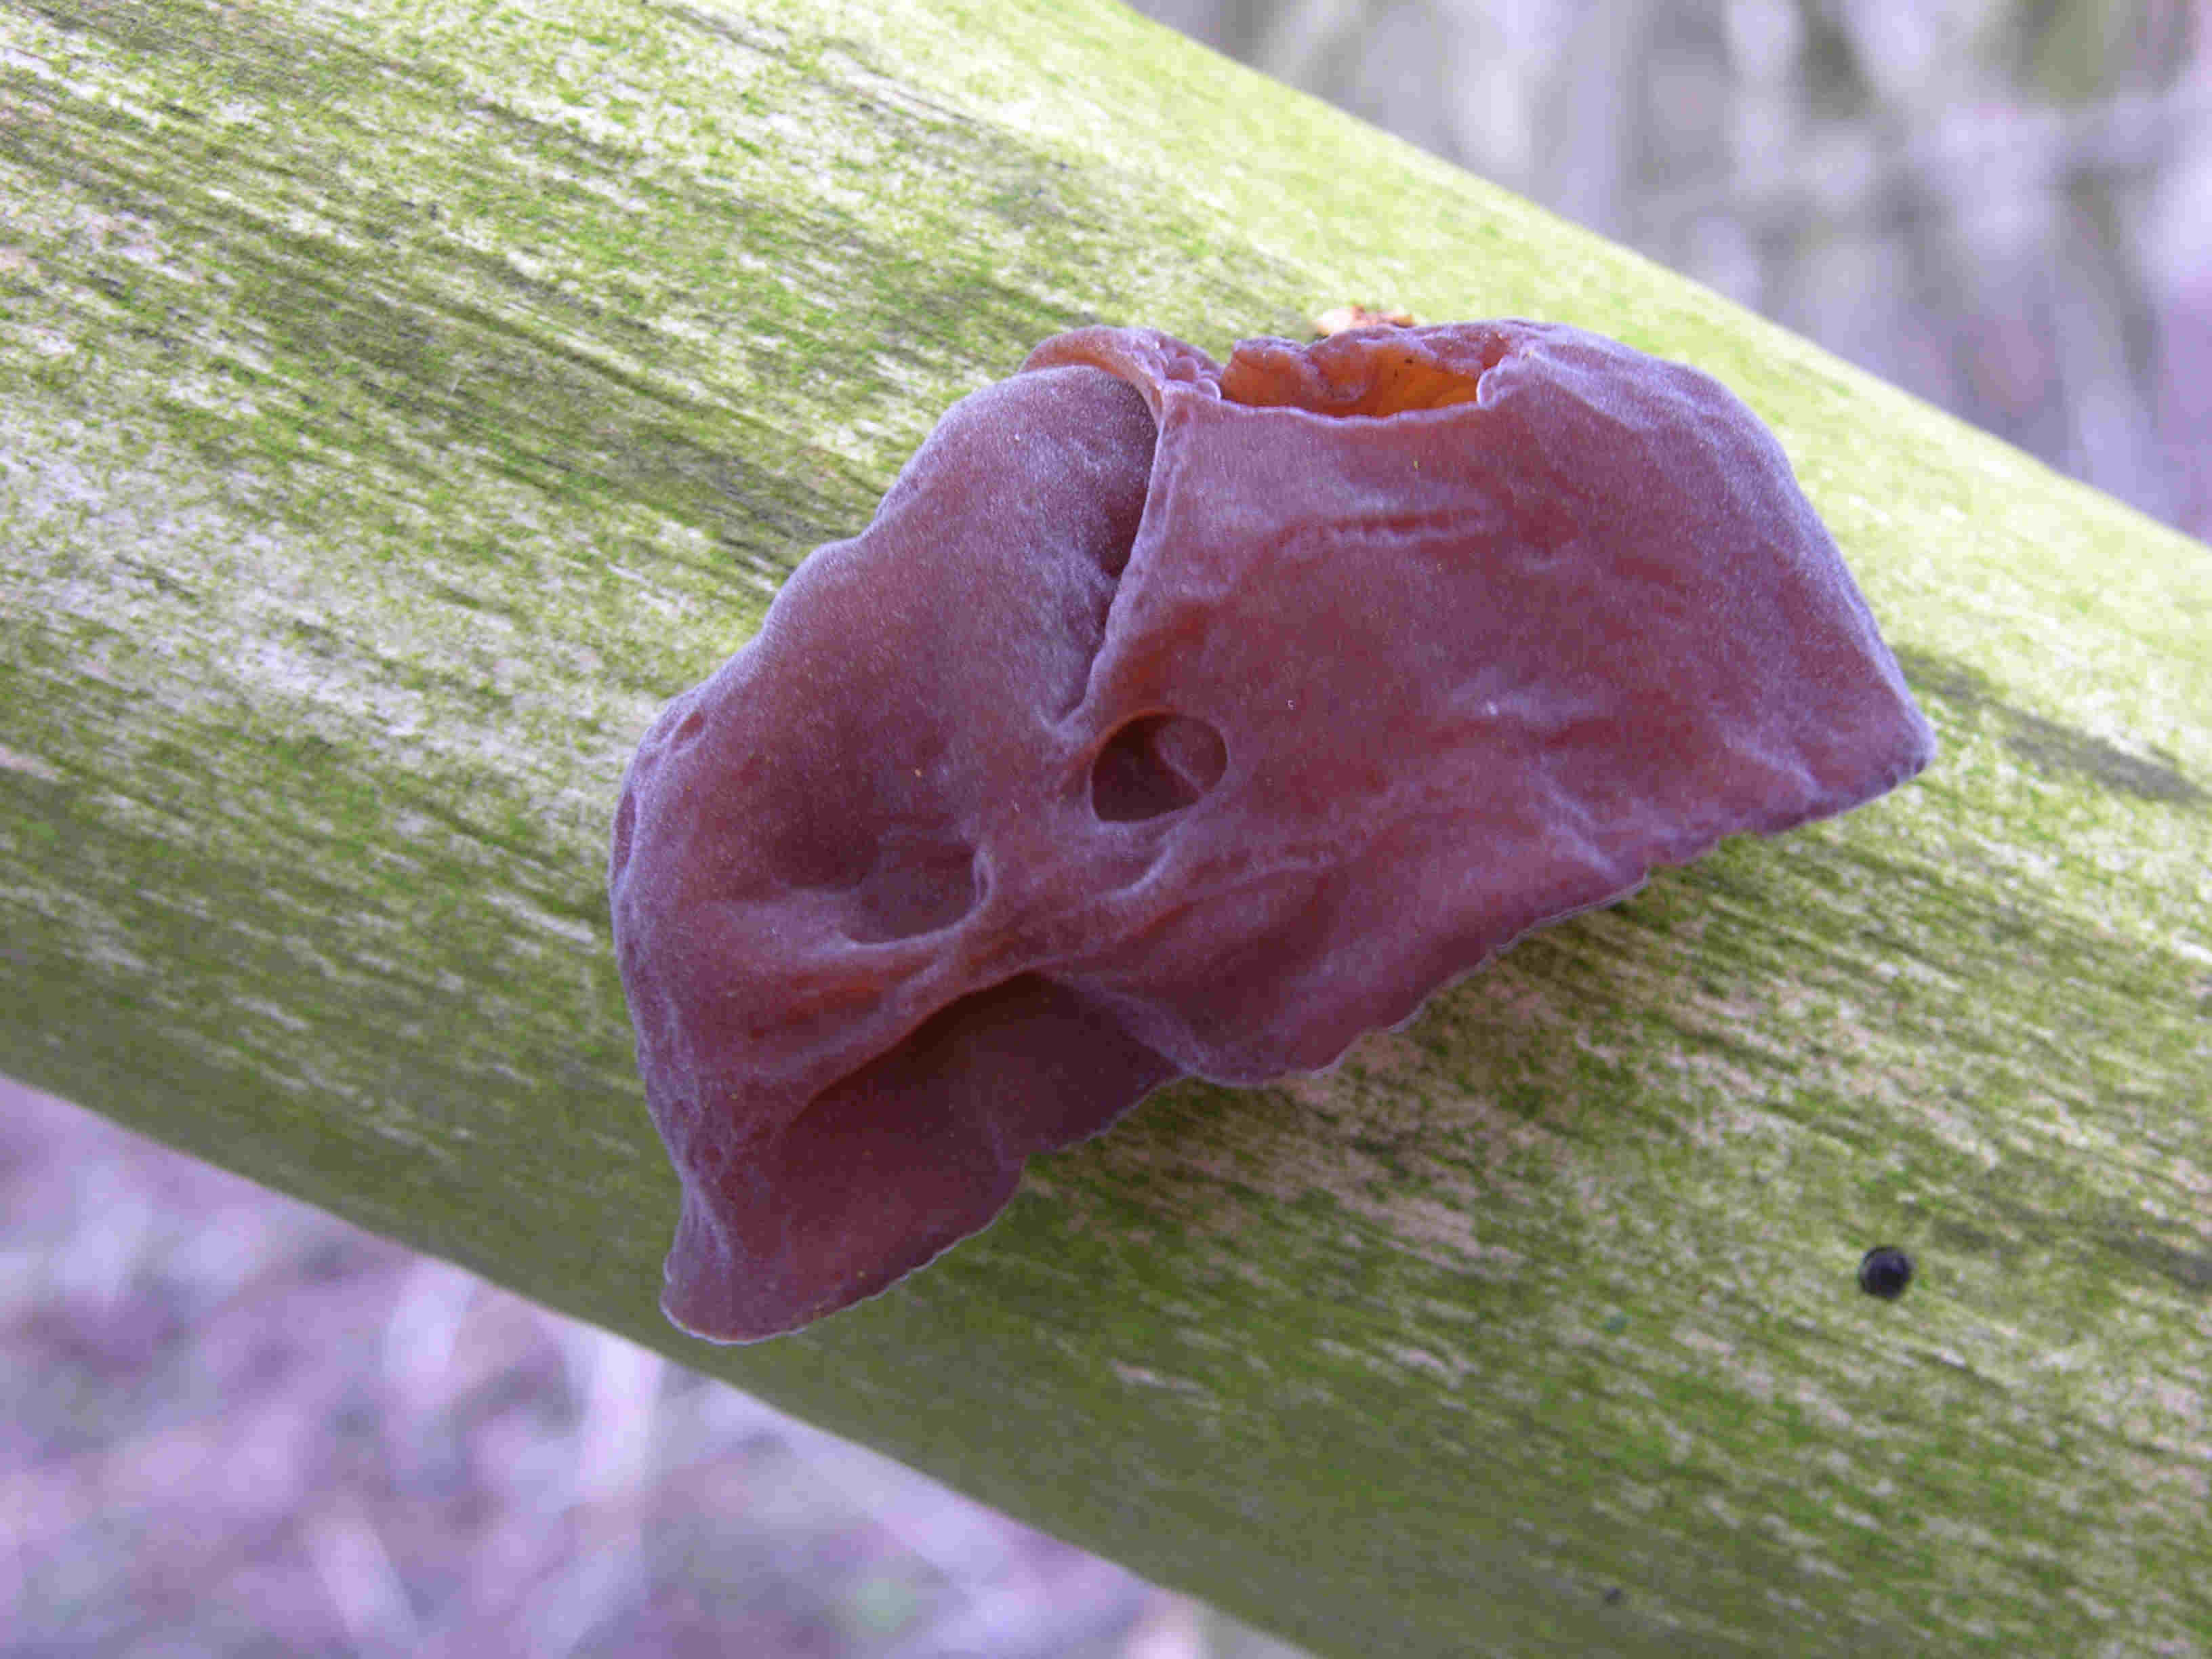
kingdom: Fungi
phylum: Basidiomycota
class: Agaricomycetes
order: Auriculariales
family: Auriculariaceae
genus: Auricularia
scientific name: Auricularia auricula-judae
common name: almindelig judasøre
